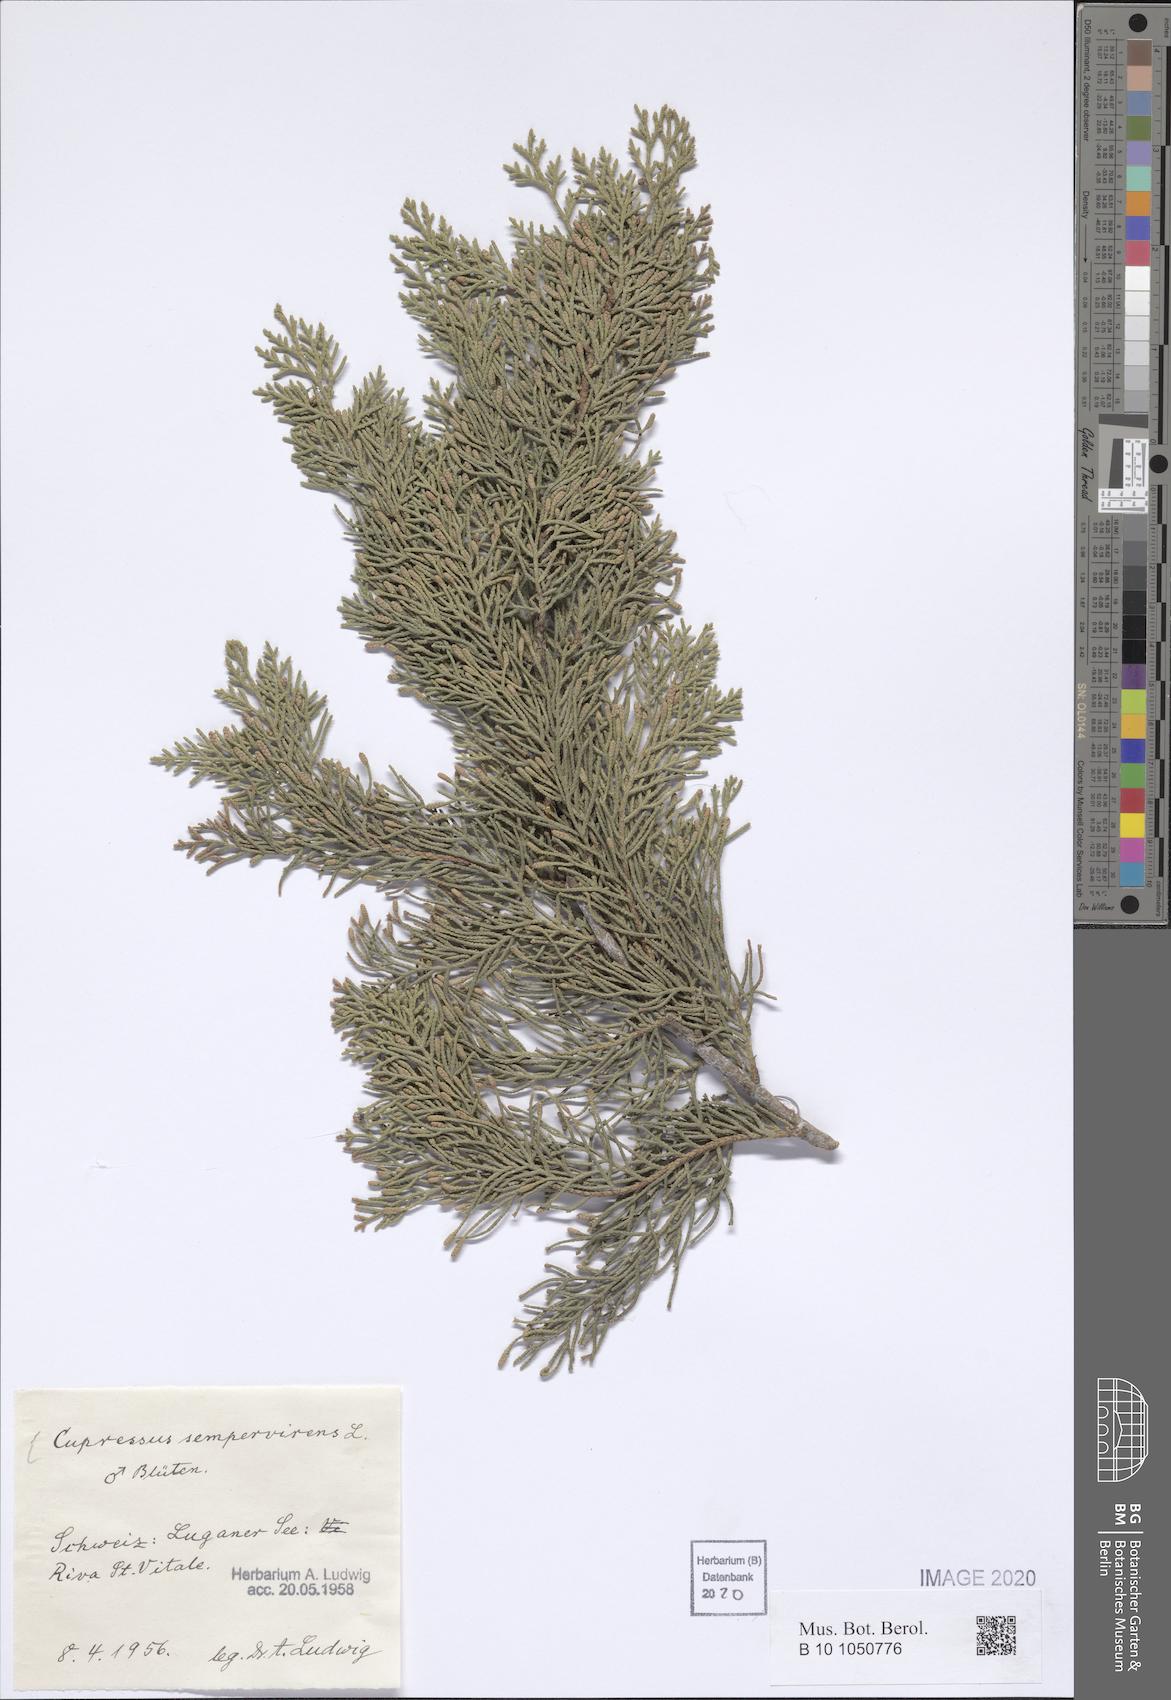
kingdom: Plantae
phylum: Tracheophyta
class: Pinopsida
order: Pinales
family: Cupressaceae
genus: Cupressus
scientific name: Cupressus sempervirens
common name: Italian cypress
